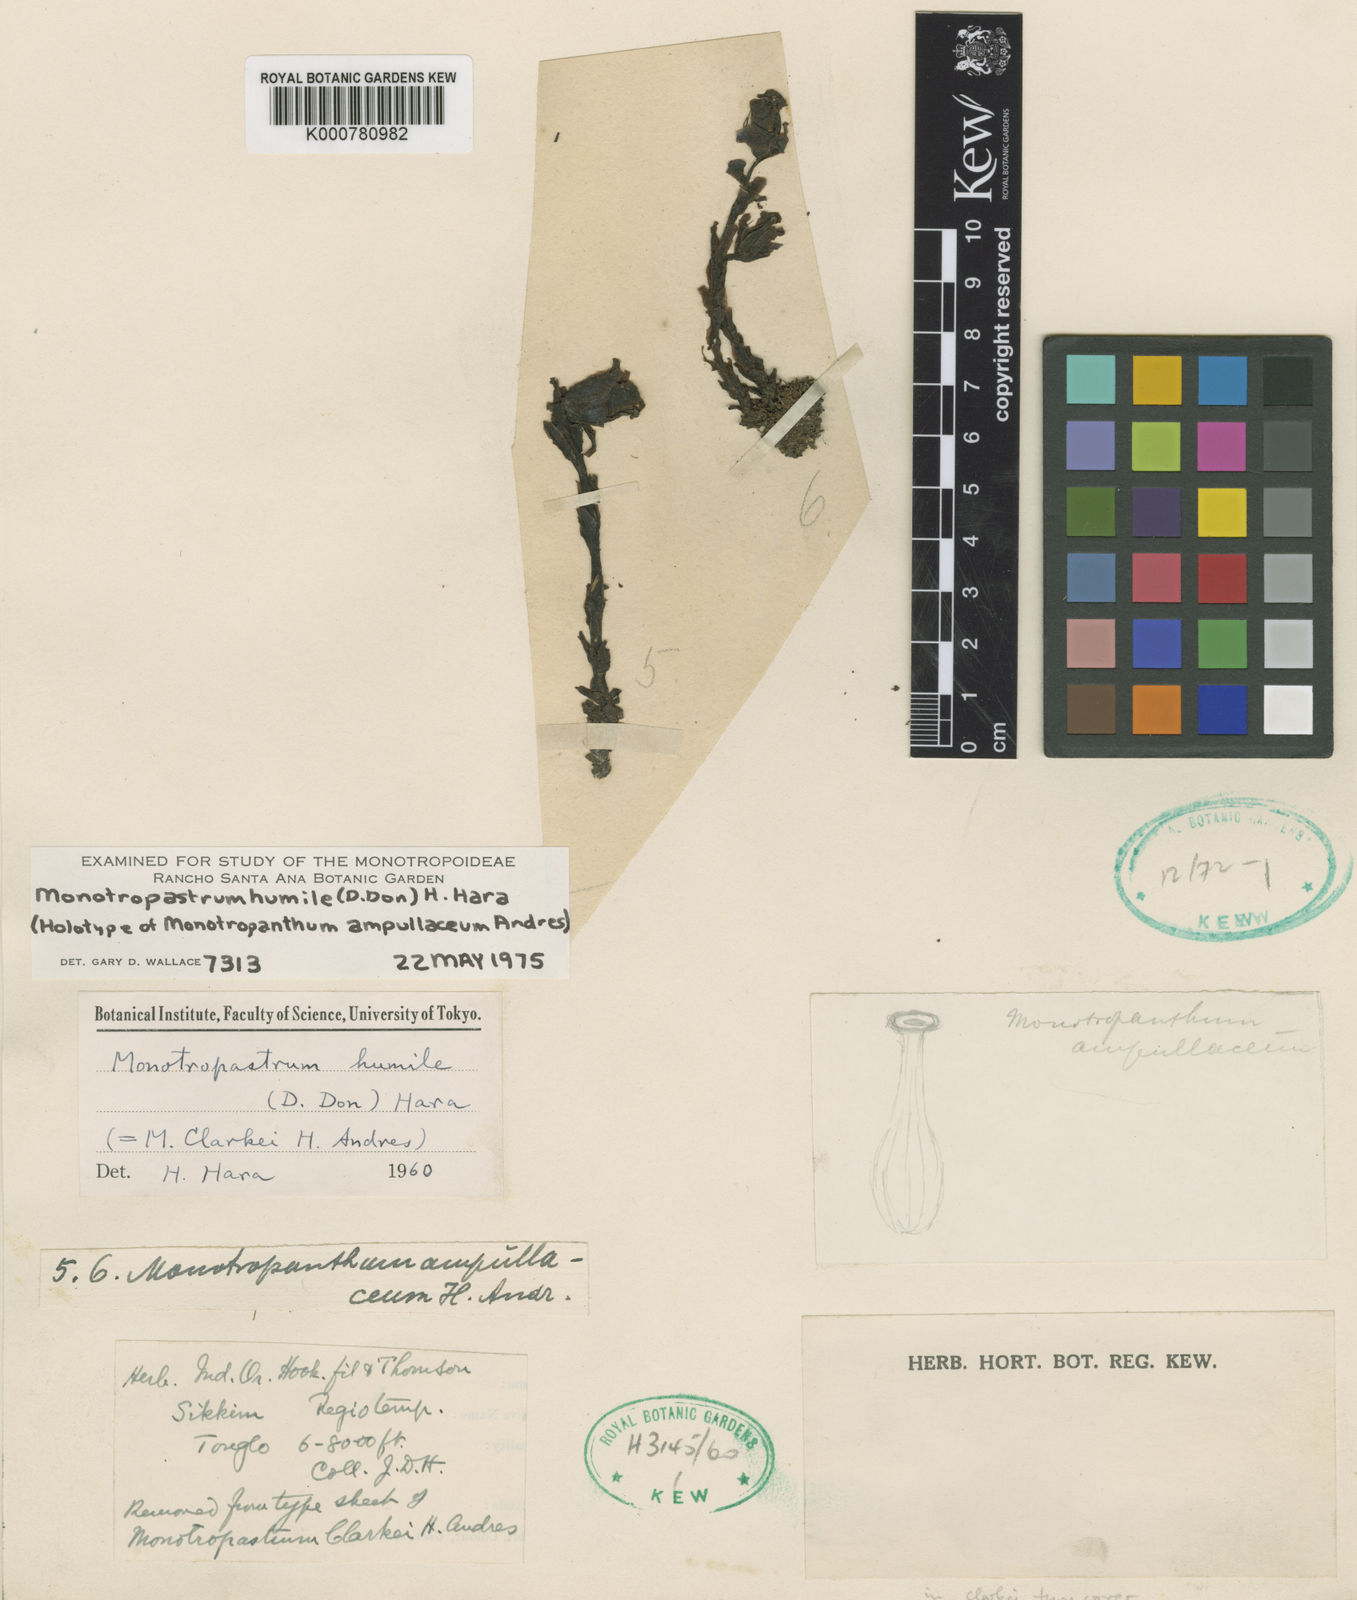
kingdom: Plantae
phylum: Tracheophyta
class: Magnoliopsida
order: Ericales
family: Ericaceae
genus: Monotropastrum
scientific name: Monotropastrum humile
